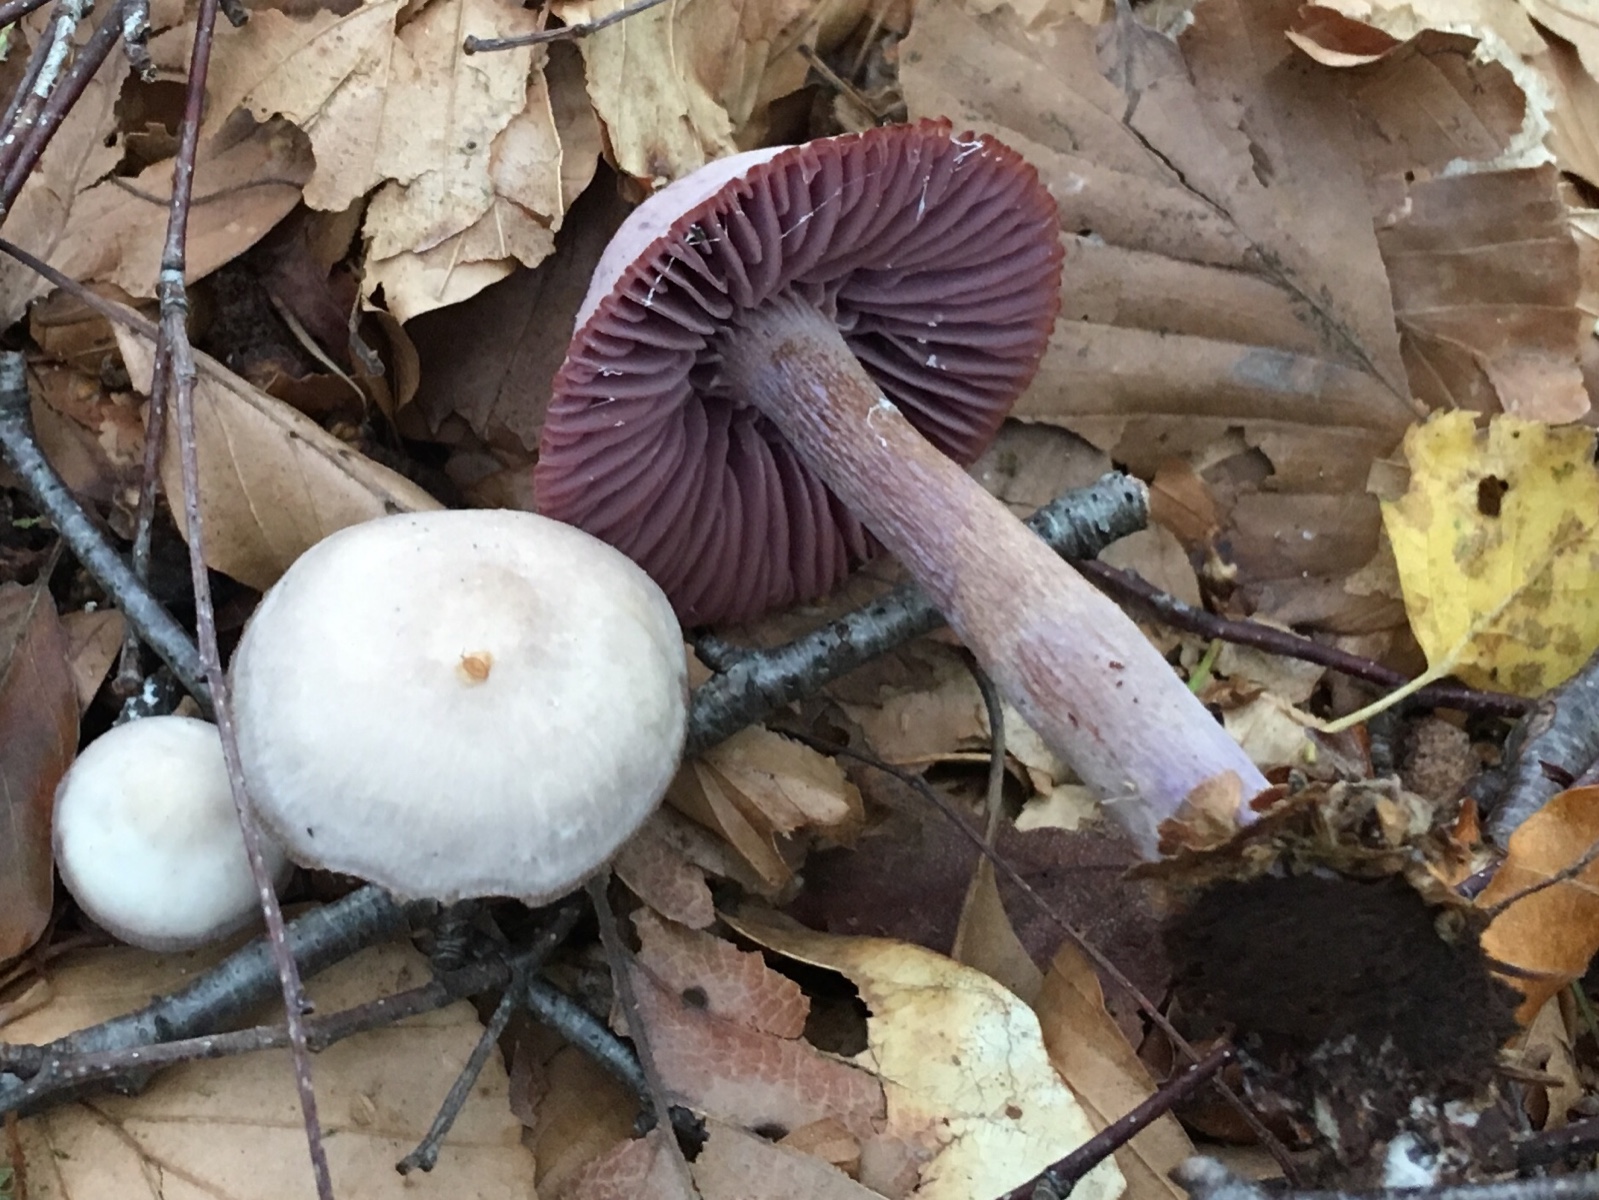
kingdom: Fungi
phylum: Basidiomycota
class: Agaricomycetes
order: Agaricales
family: Hydnangiaceae
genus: Laccaria
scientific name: Laccaria amethystina
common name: violet ametysthat
